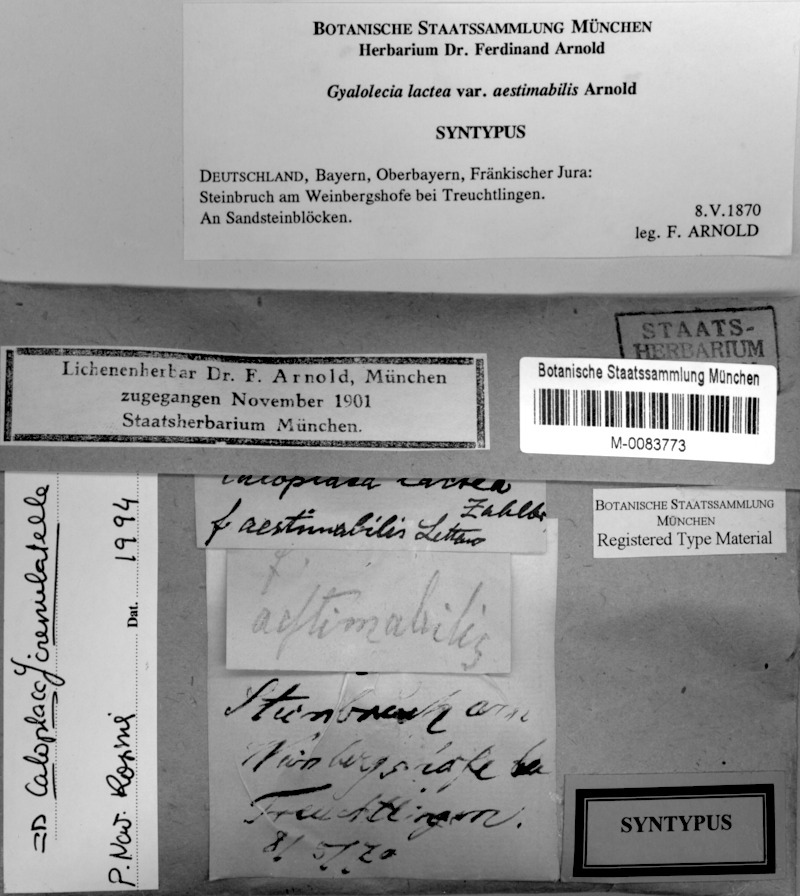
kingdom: Fungi
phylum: Ascomycota
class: Lecanoromycetes
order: Teloschistales
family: Teloschistaceae
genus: Xanthocarpia
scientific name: Xanthocarpia crenulatella
